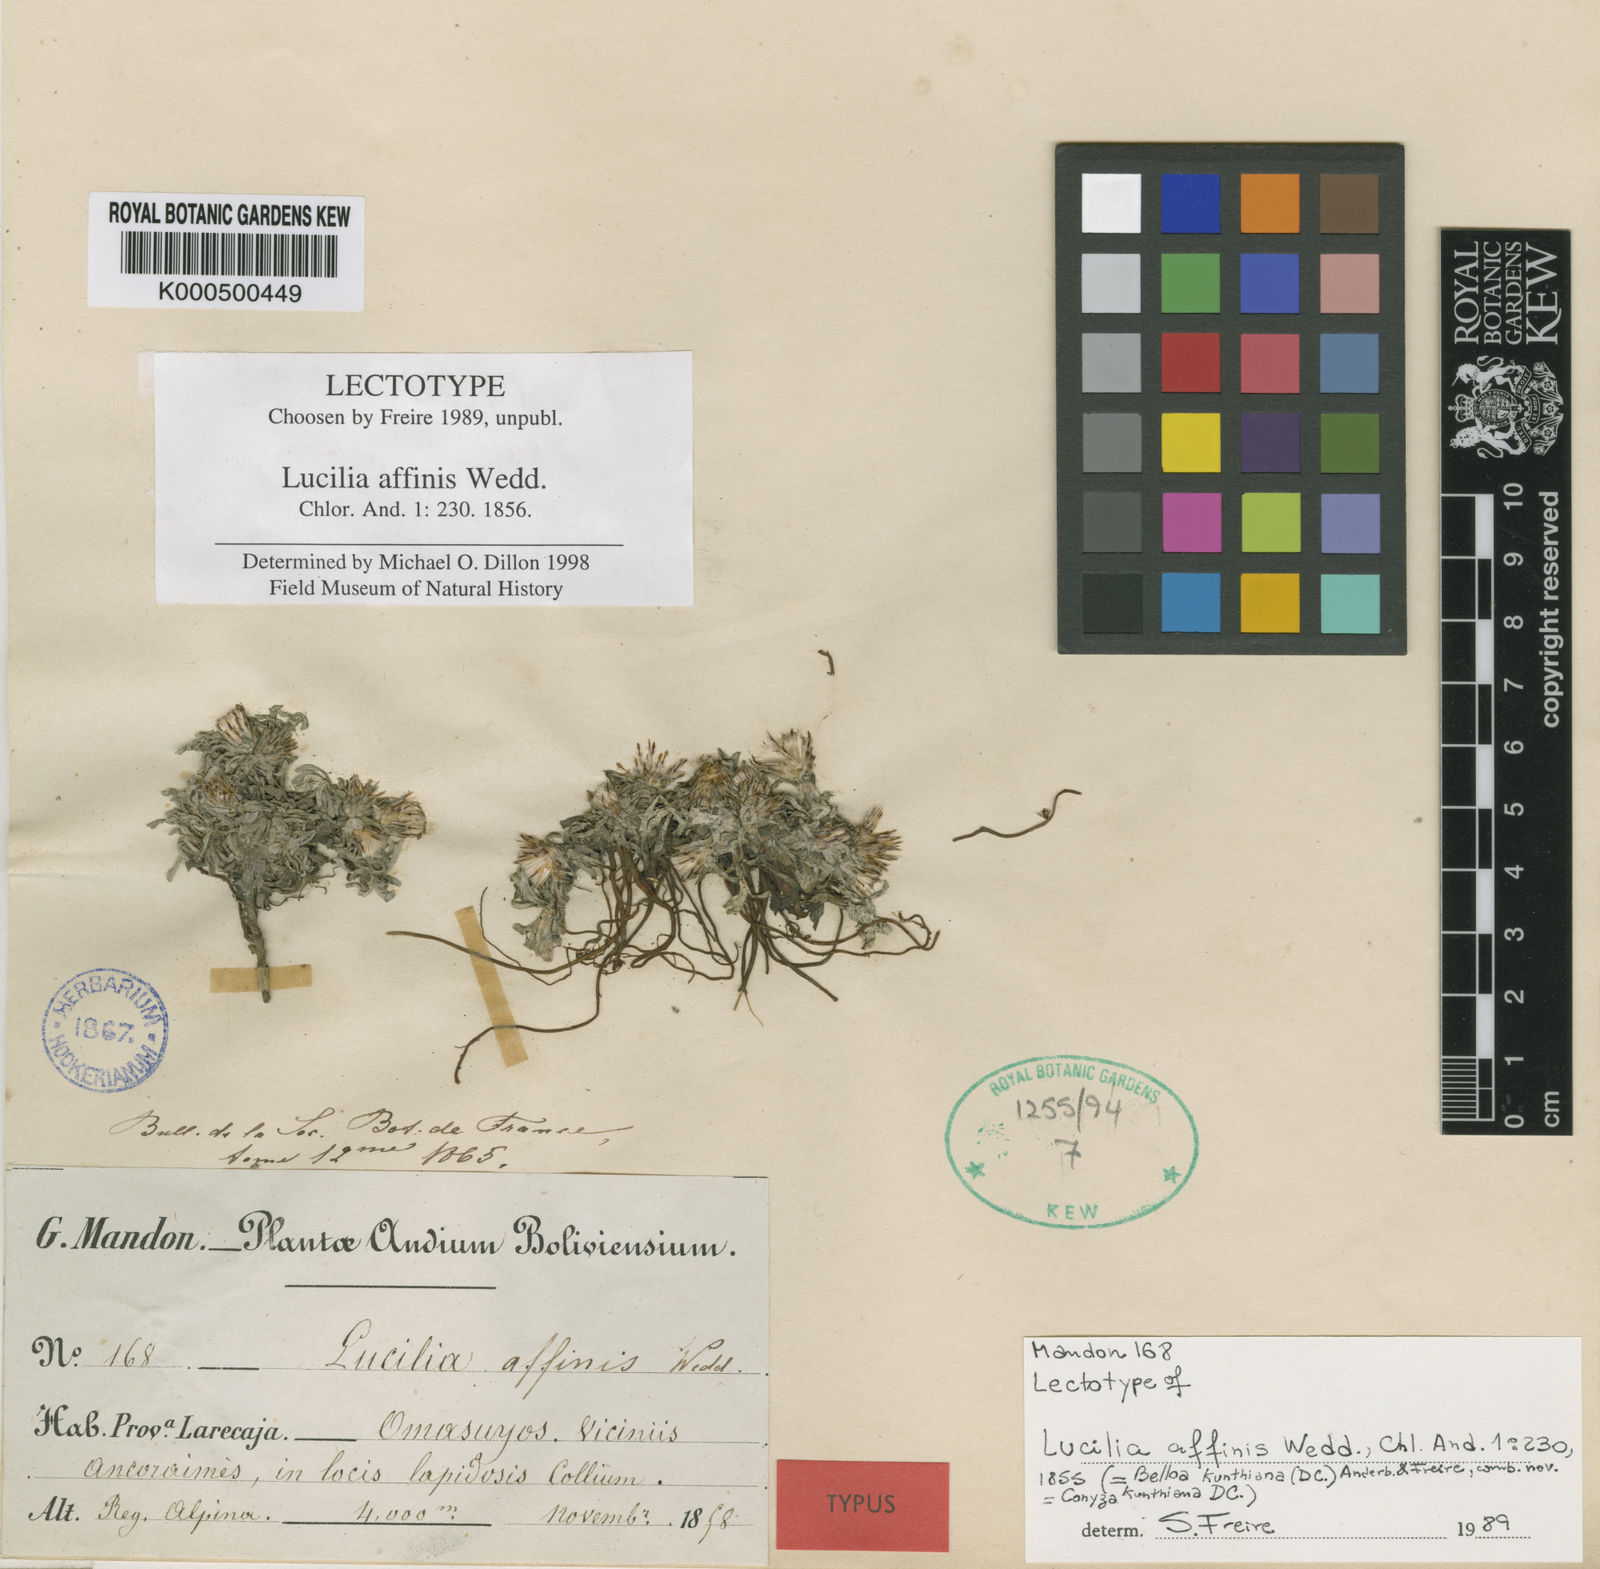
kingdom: Plantae
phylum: Tracheophyta
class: Magnoliopsida
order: Asterales
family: Asteraceae
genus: Mniodes
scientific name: Mniodes kunthiana
